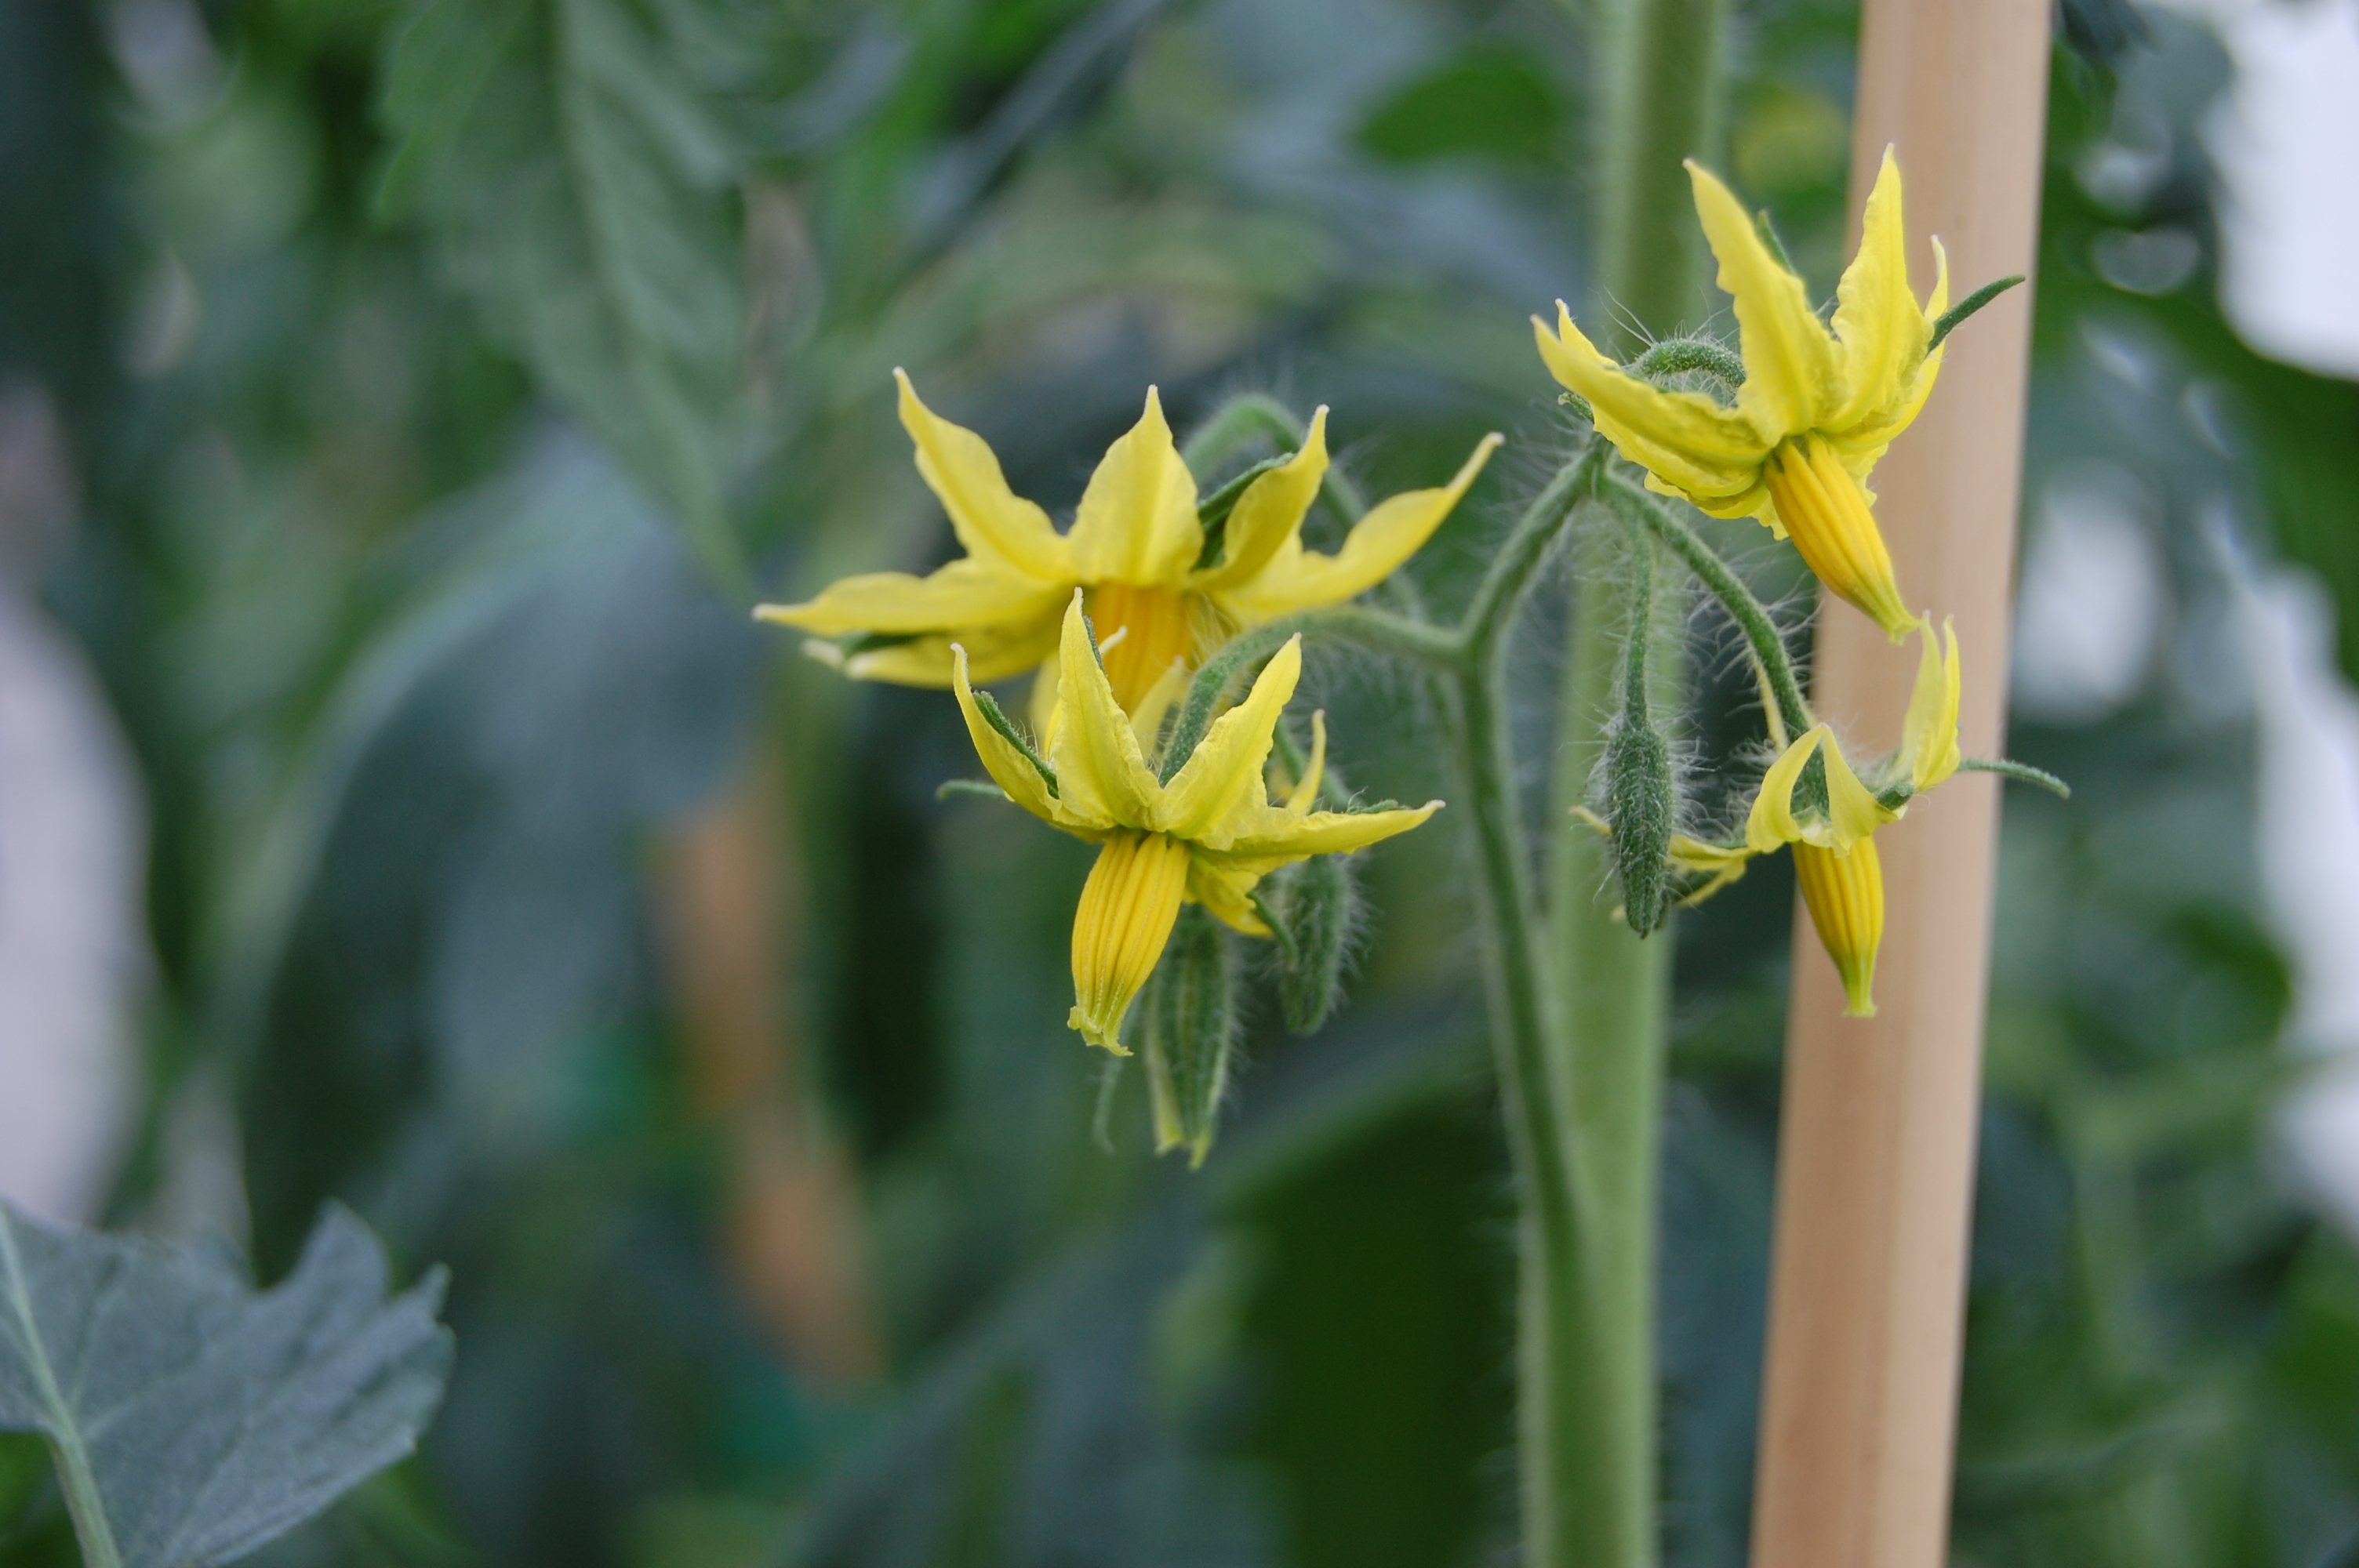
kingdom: Plantae
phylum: Tracheophyta
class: Liliopsida
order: Poales
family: Poaceae
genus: Hordeum
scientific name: Hordeum vulgare
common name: Common barley
